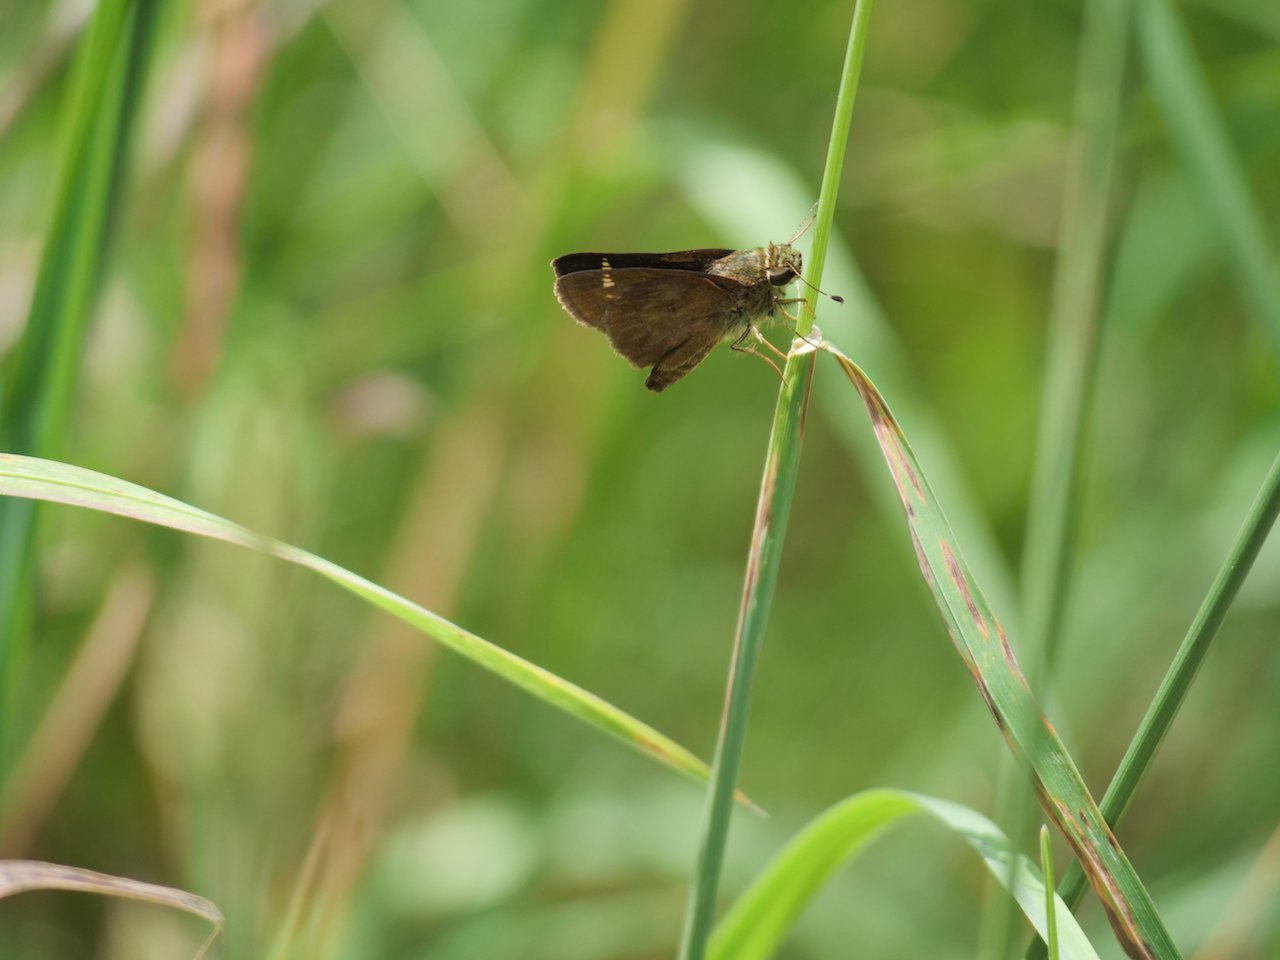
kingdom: Animalia
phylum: Arthropoda
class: Insecta
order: Lepidoptera
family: Hesperiidae
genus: Vernia
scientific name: Vernia verna
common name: Little Glassywing
